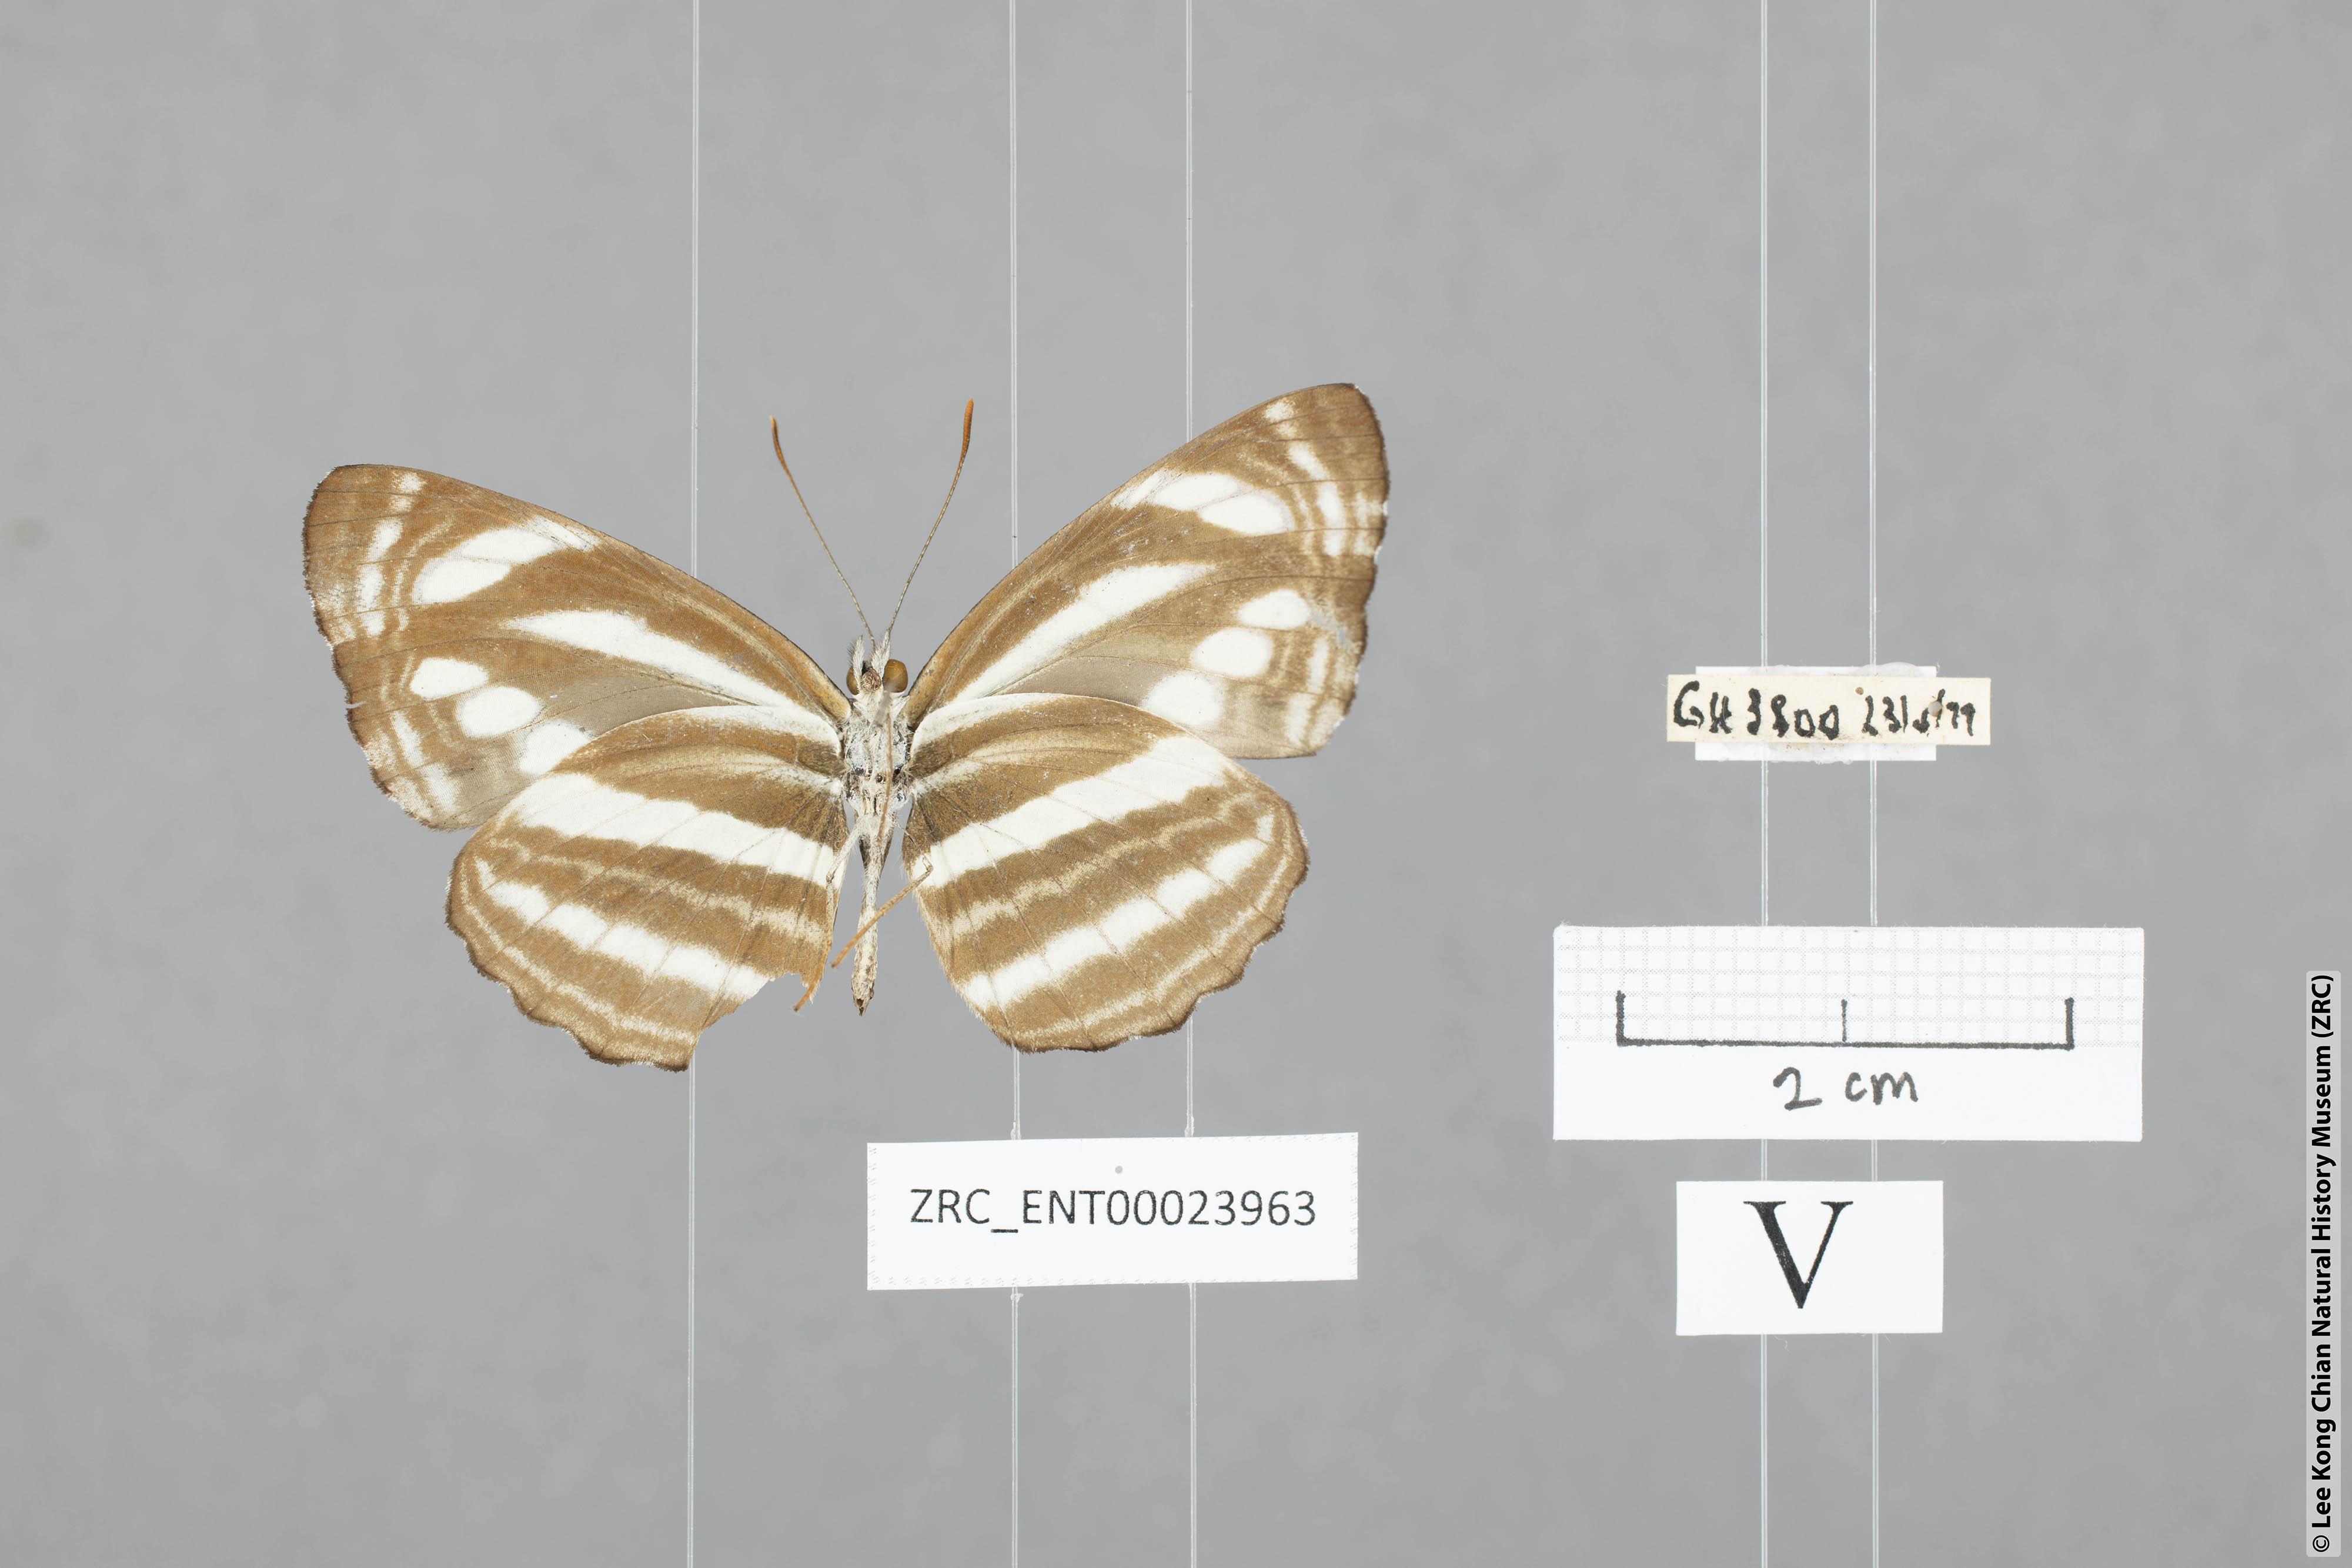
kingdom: Animalia
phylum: Arthropoda
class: Insecta
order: Lepidoptera
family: Nymphalidae
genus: Neptis
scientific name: Neptis clinioides
